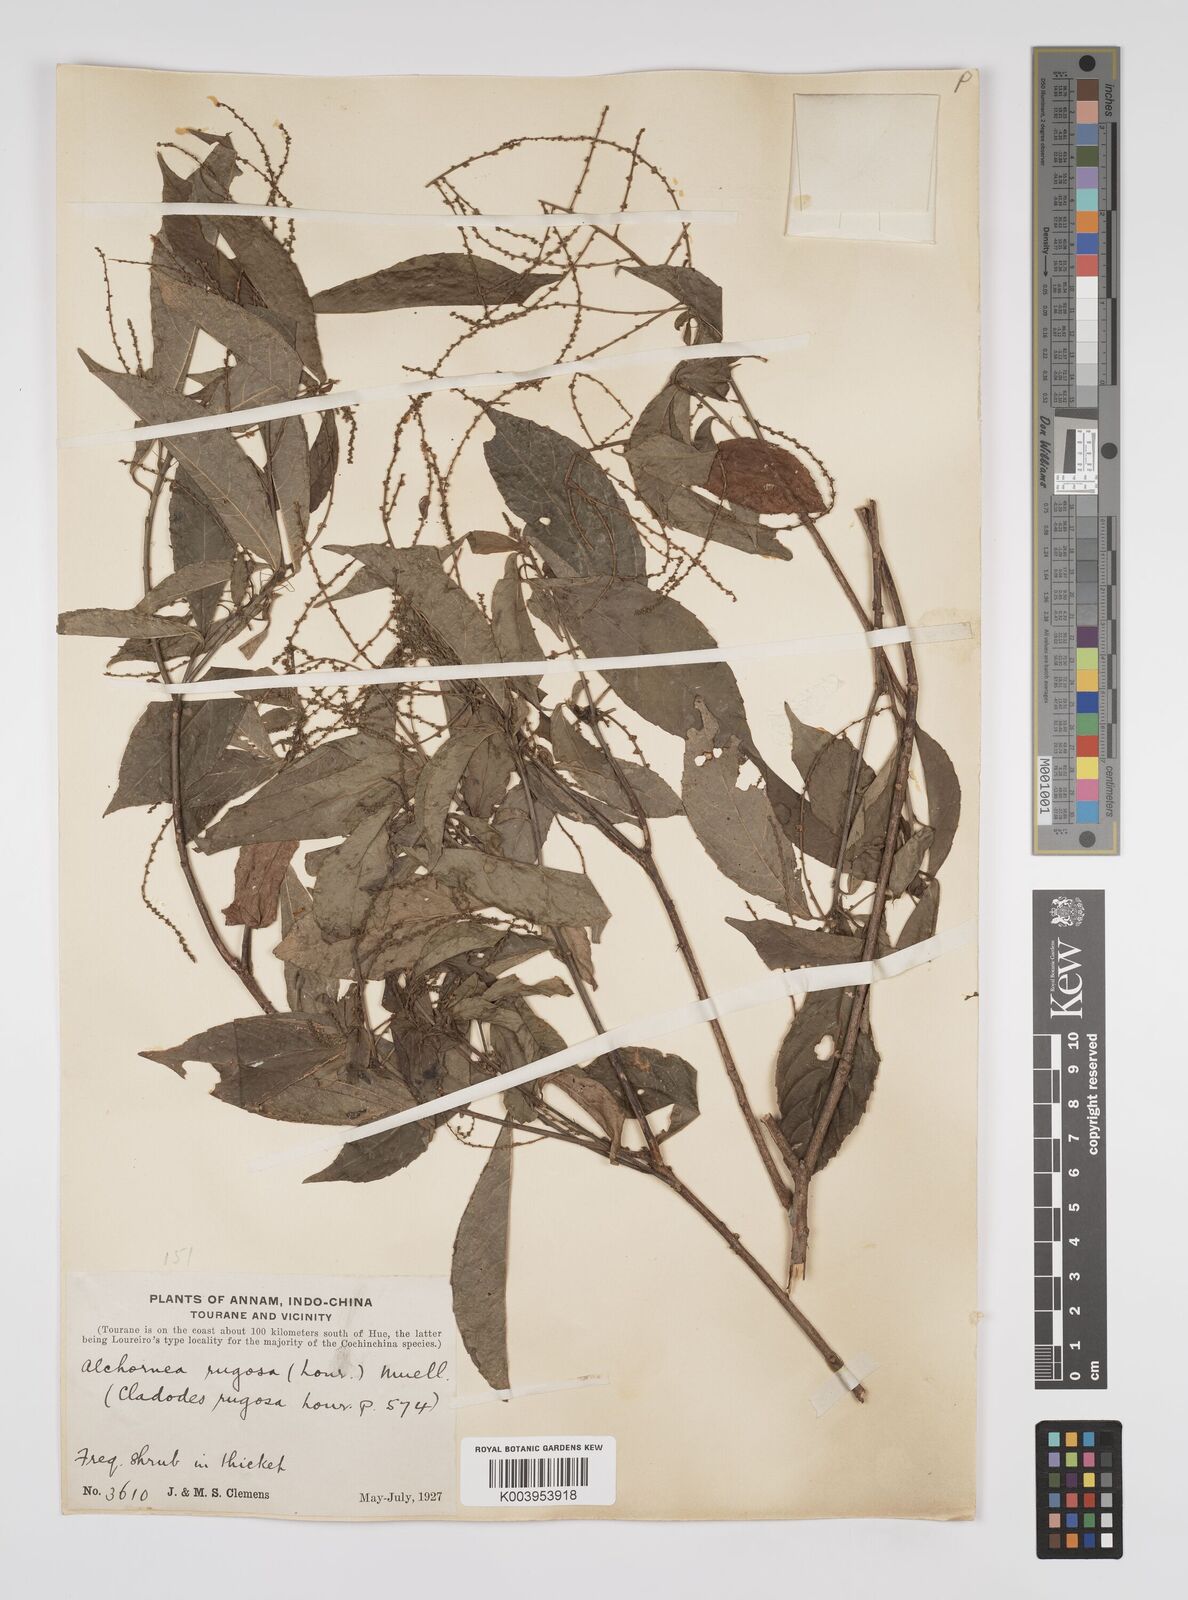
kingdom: Plantae
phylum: Tracheophyta
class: Magnoliopsida
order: Malpighiales
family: Euphorbiaceae
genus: Alchornea
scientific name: Alchornea rugosa
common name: Alchorntree
